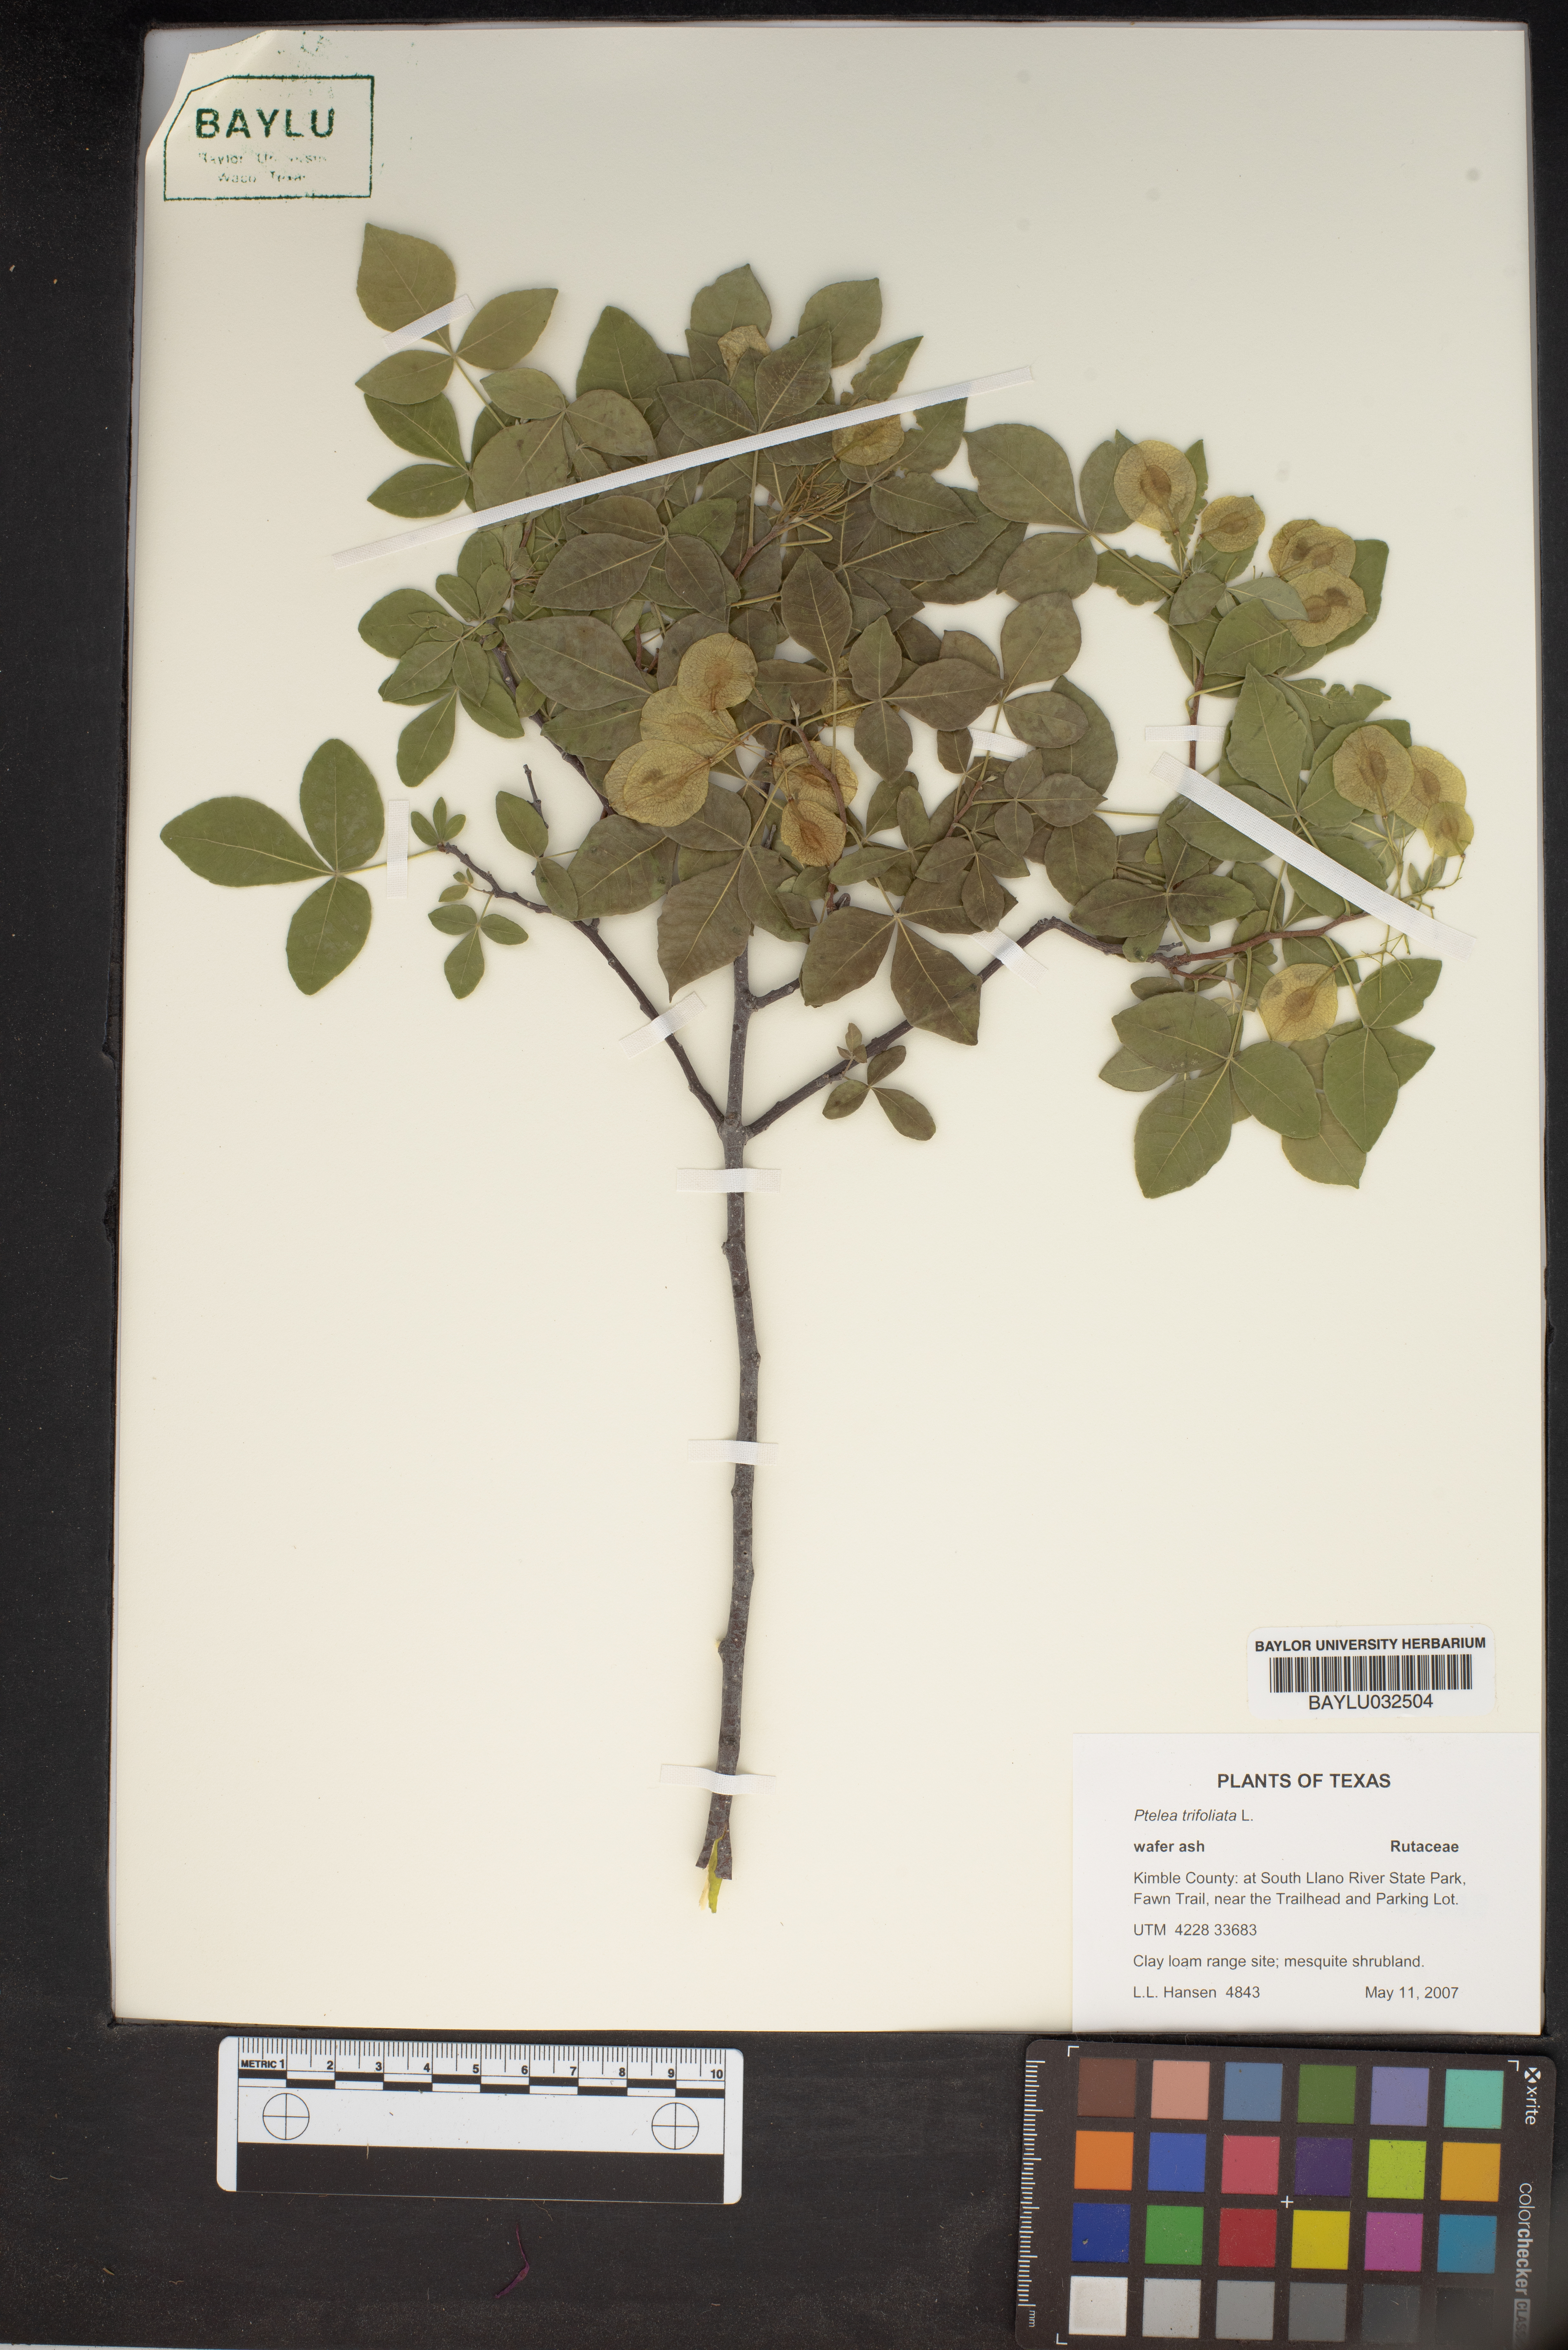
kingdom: Plantae
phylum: Tracheophyta
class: Magnoliopsida
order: Sapindales
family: Rutaceae
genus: Ptelea
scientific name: Ptelea trifoliata
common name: Common hop-tree
